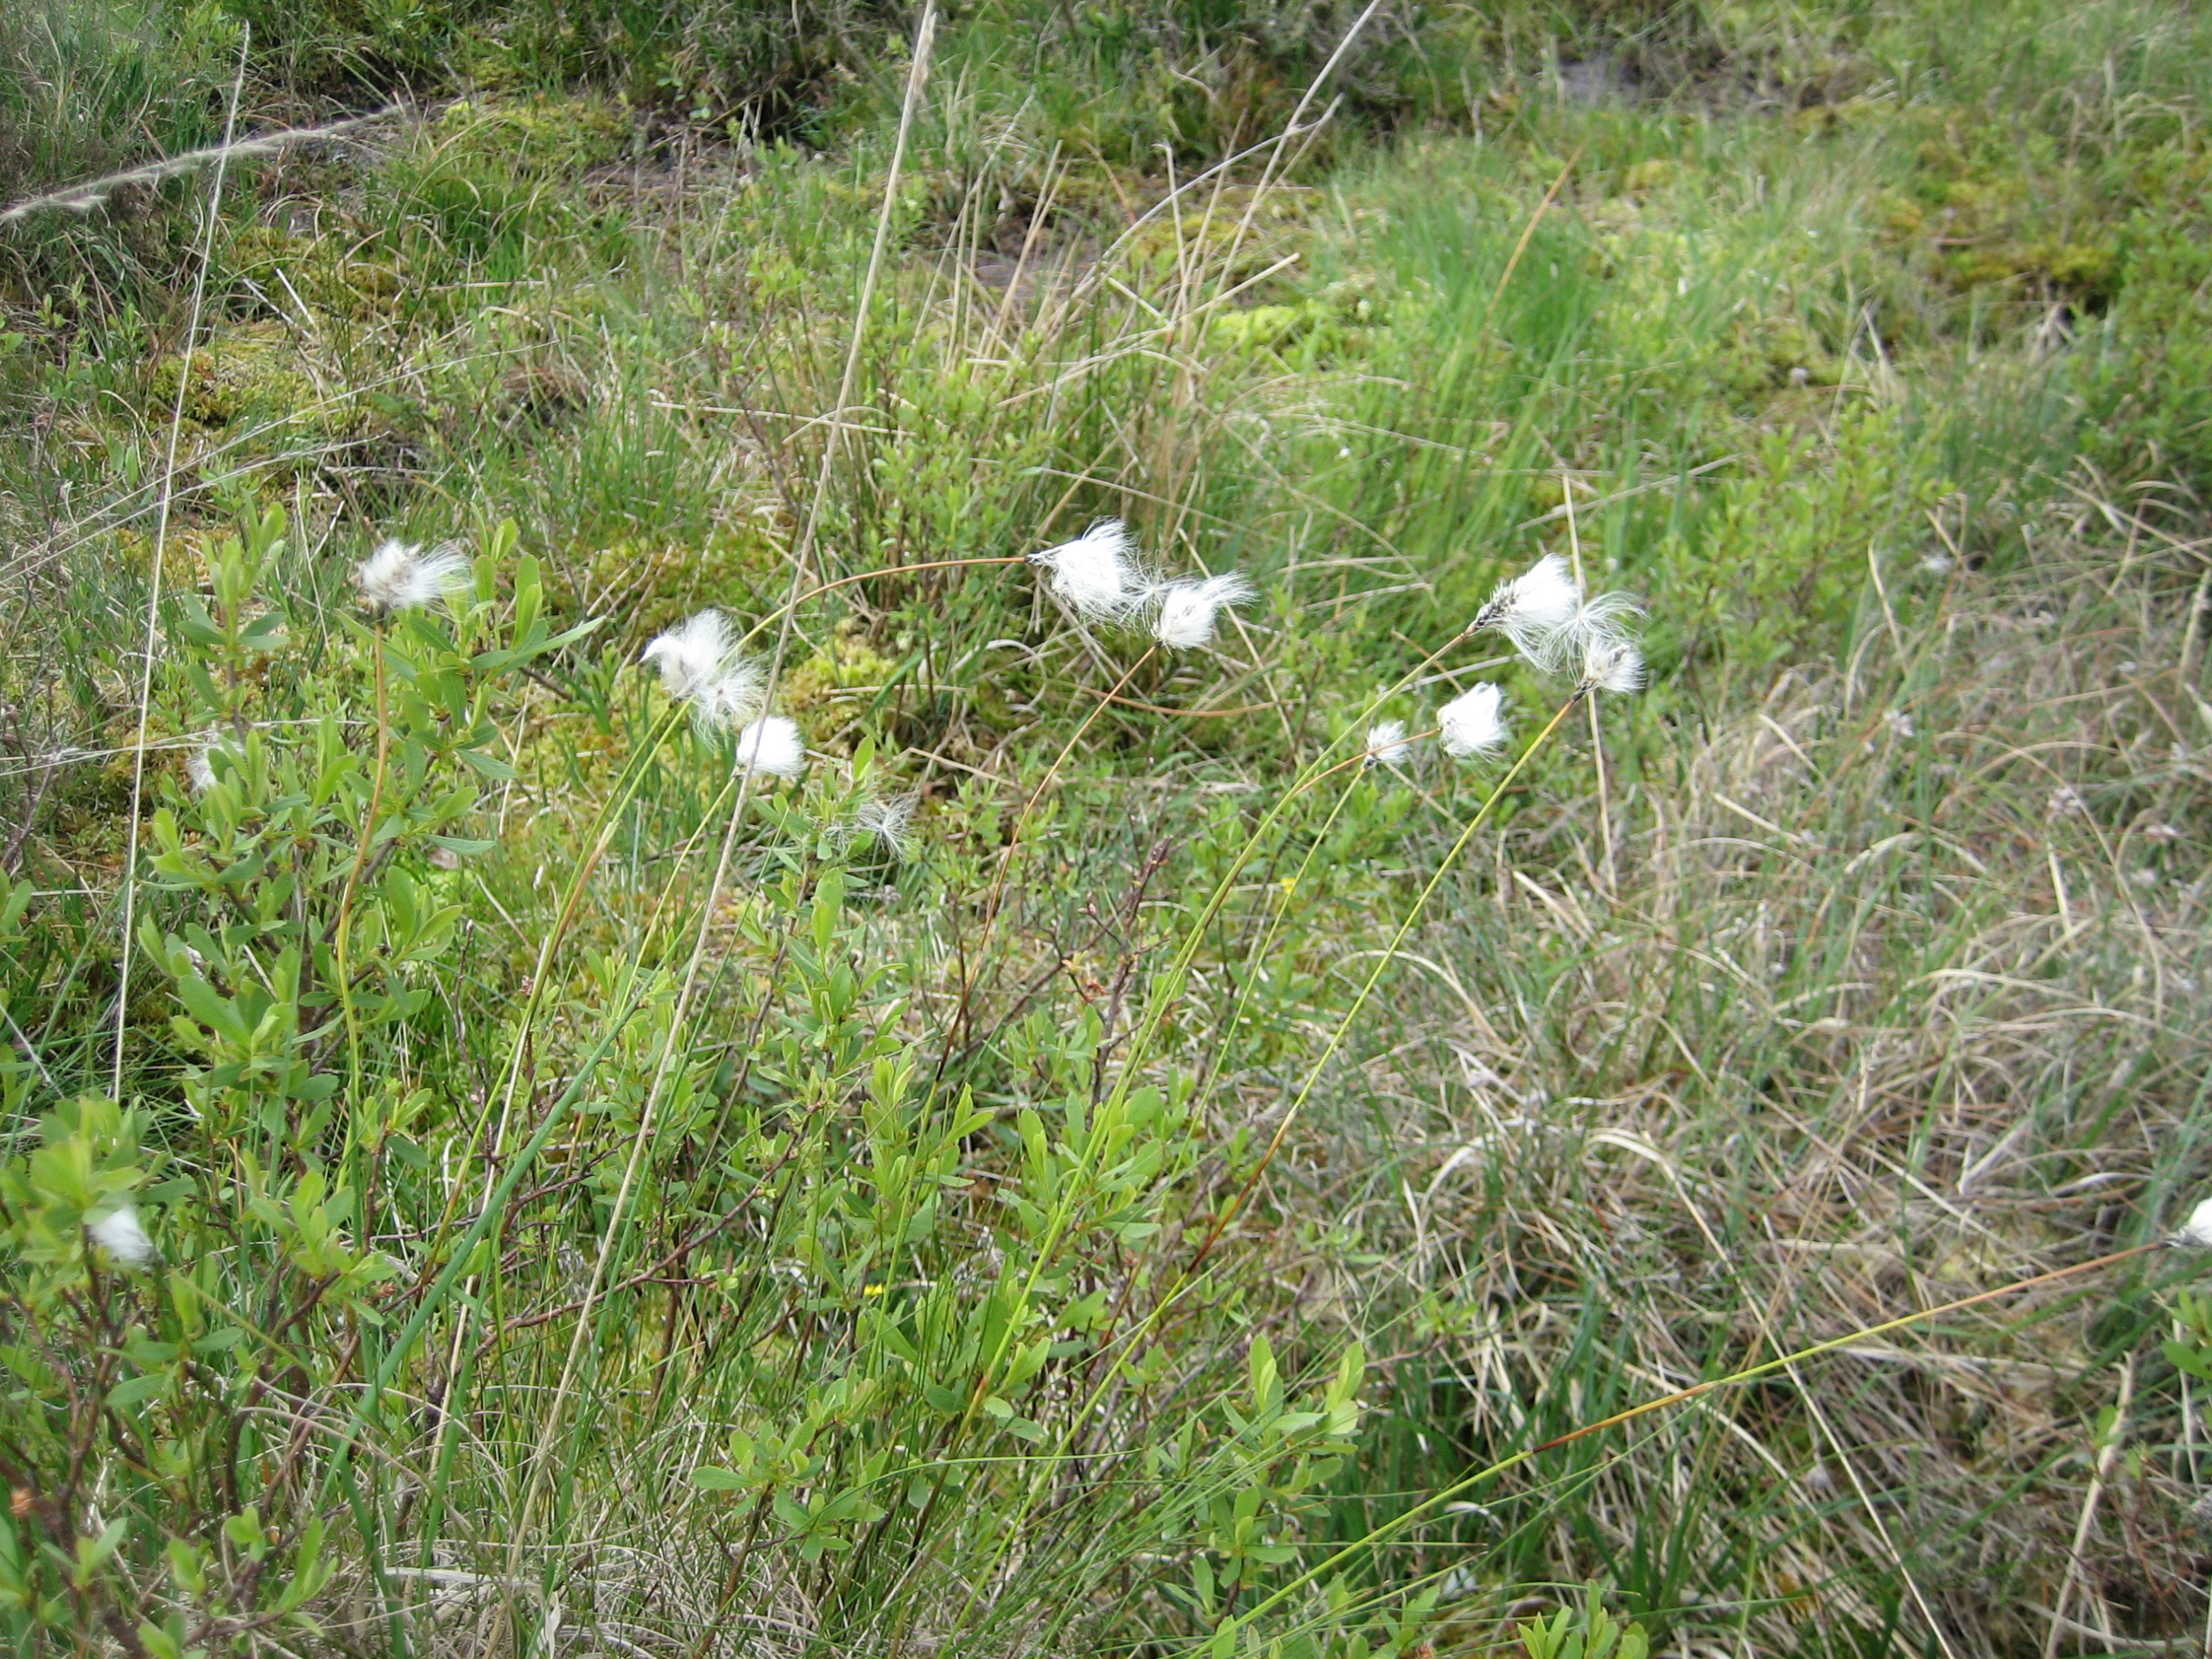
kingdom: Plantae
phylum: Tracheophyta
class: Liliopsida
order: Poales
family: Cyperaceae
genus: Eriophorum
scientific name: Eriophorum vaginatum
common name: Tue-kæruld
